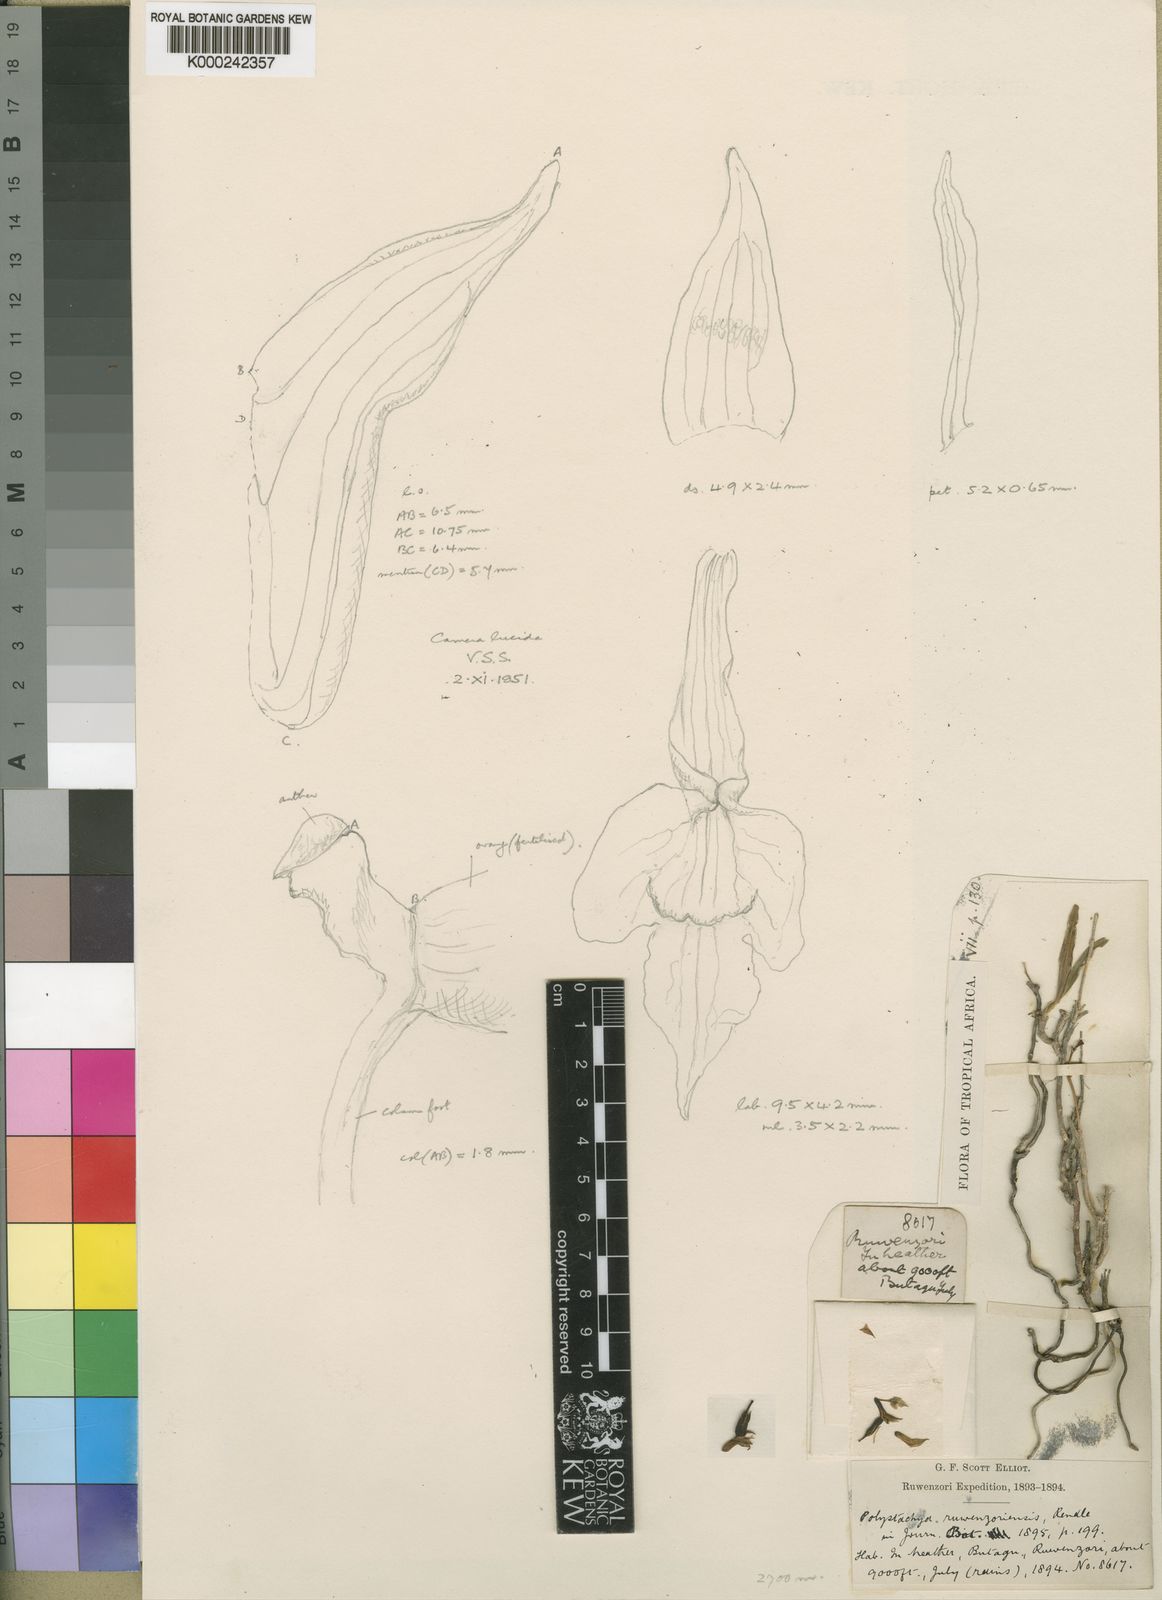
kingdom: Plantae
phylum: Tracheophyta
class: Liliopsida
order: Asparagales
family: Orchidaceae
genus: Polystachya
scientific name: Polystachya ruwenzoriensis
